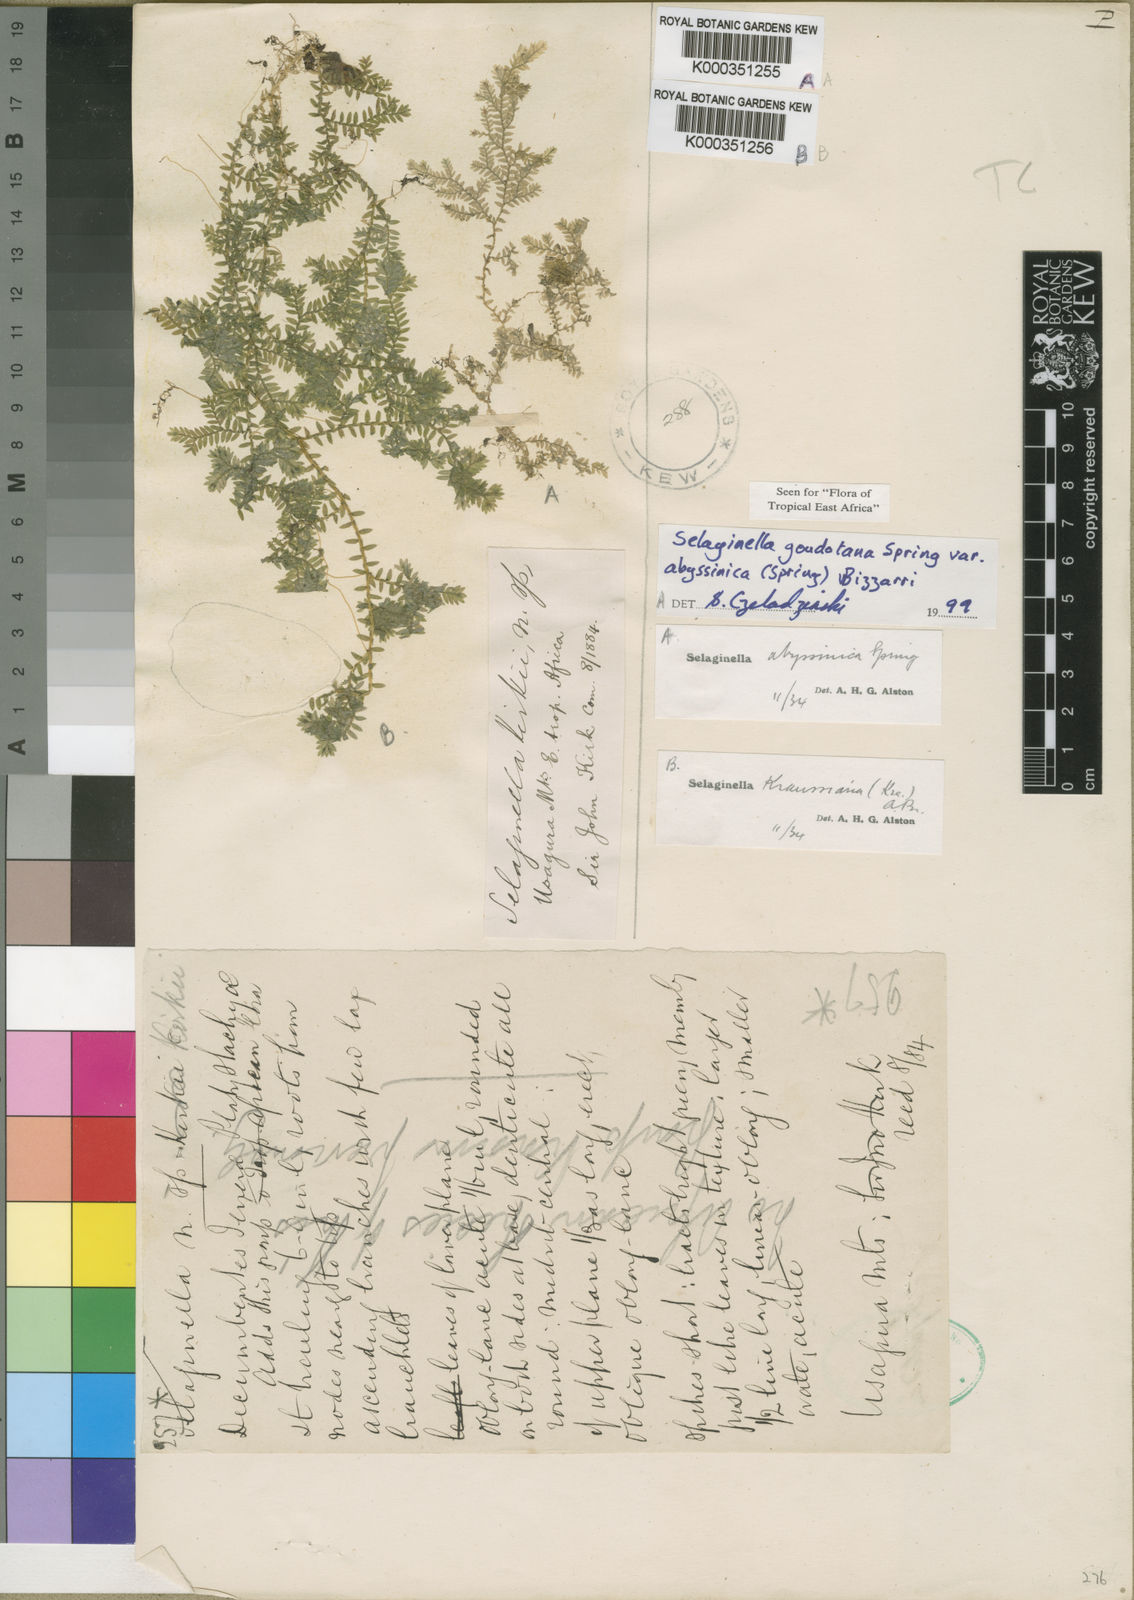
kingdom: Plantae
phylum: Tracheophyta
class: Lycopodiopsida
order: Selaginellales
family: Selaginellaceae
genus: Selaginella
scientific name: Selaginella
